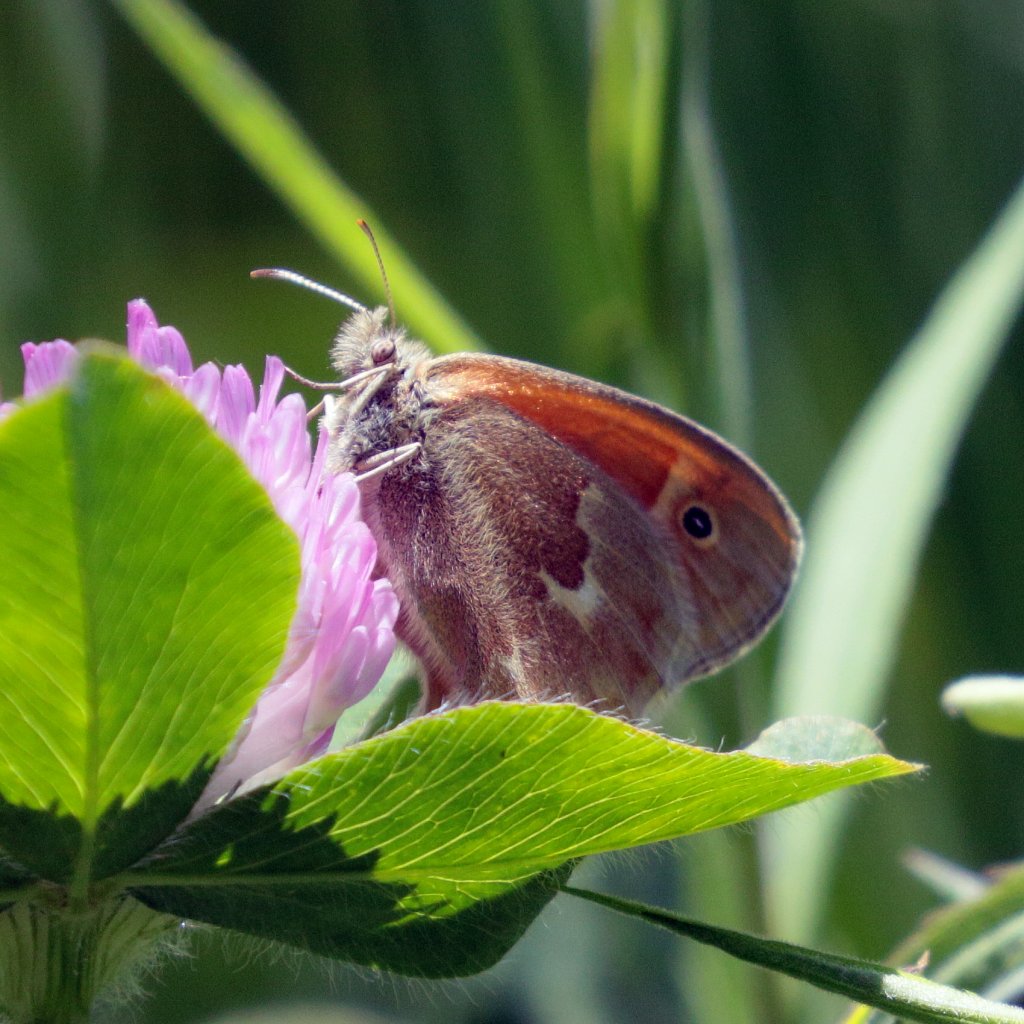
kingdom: Animalia
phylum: Arthropoda
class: Insecta
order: Lepidoptera
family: Nymphalidae
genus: Coenonympha
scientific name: Coenonympha tullia
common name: Large Heath
